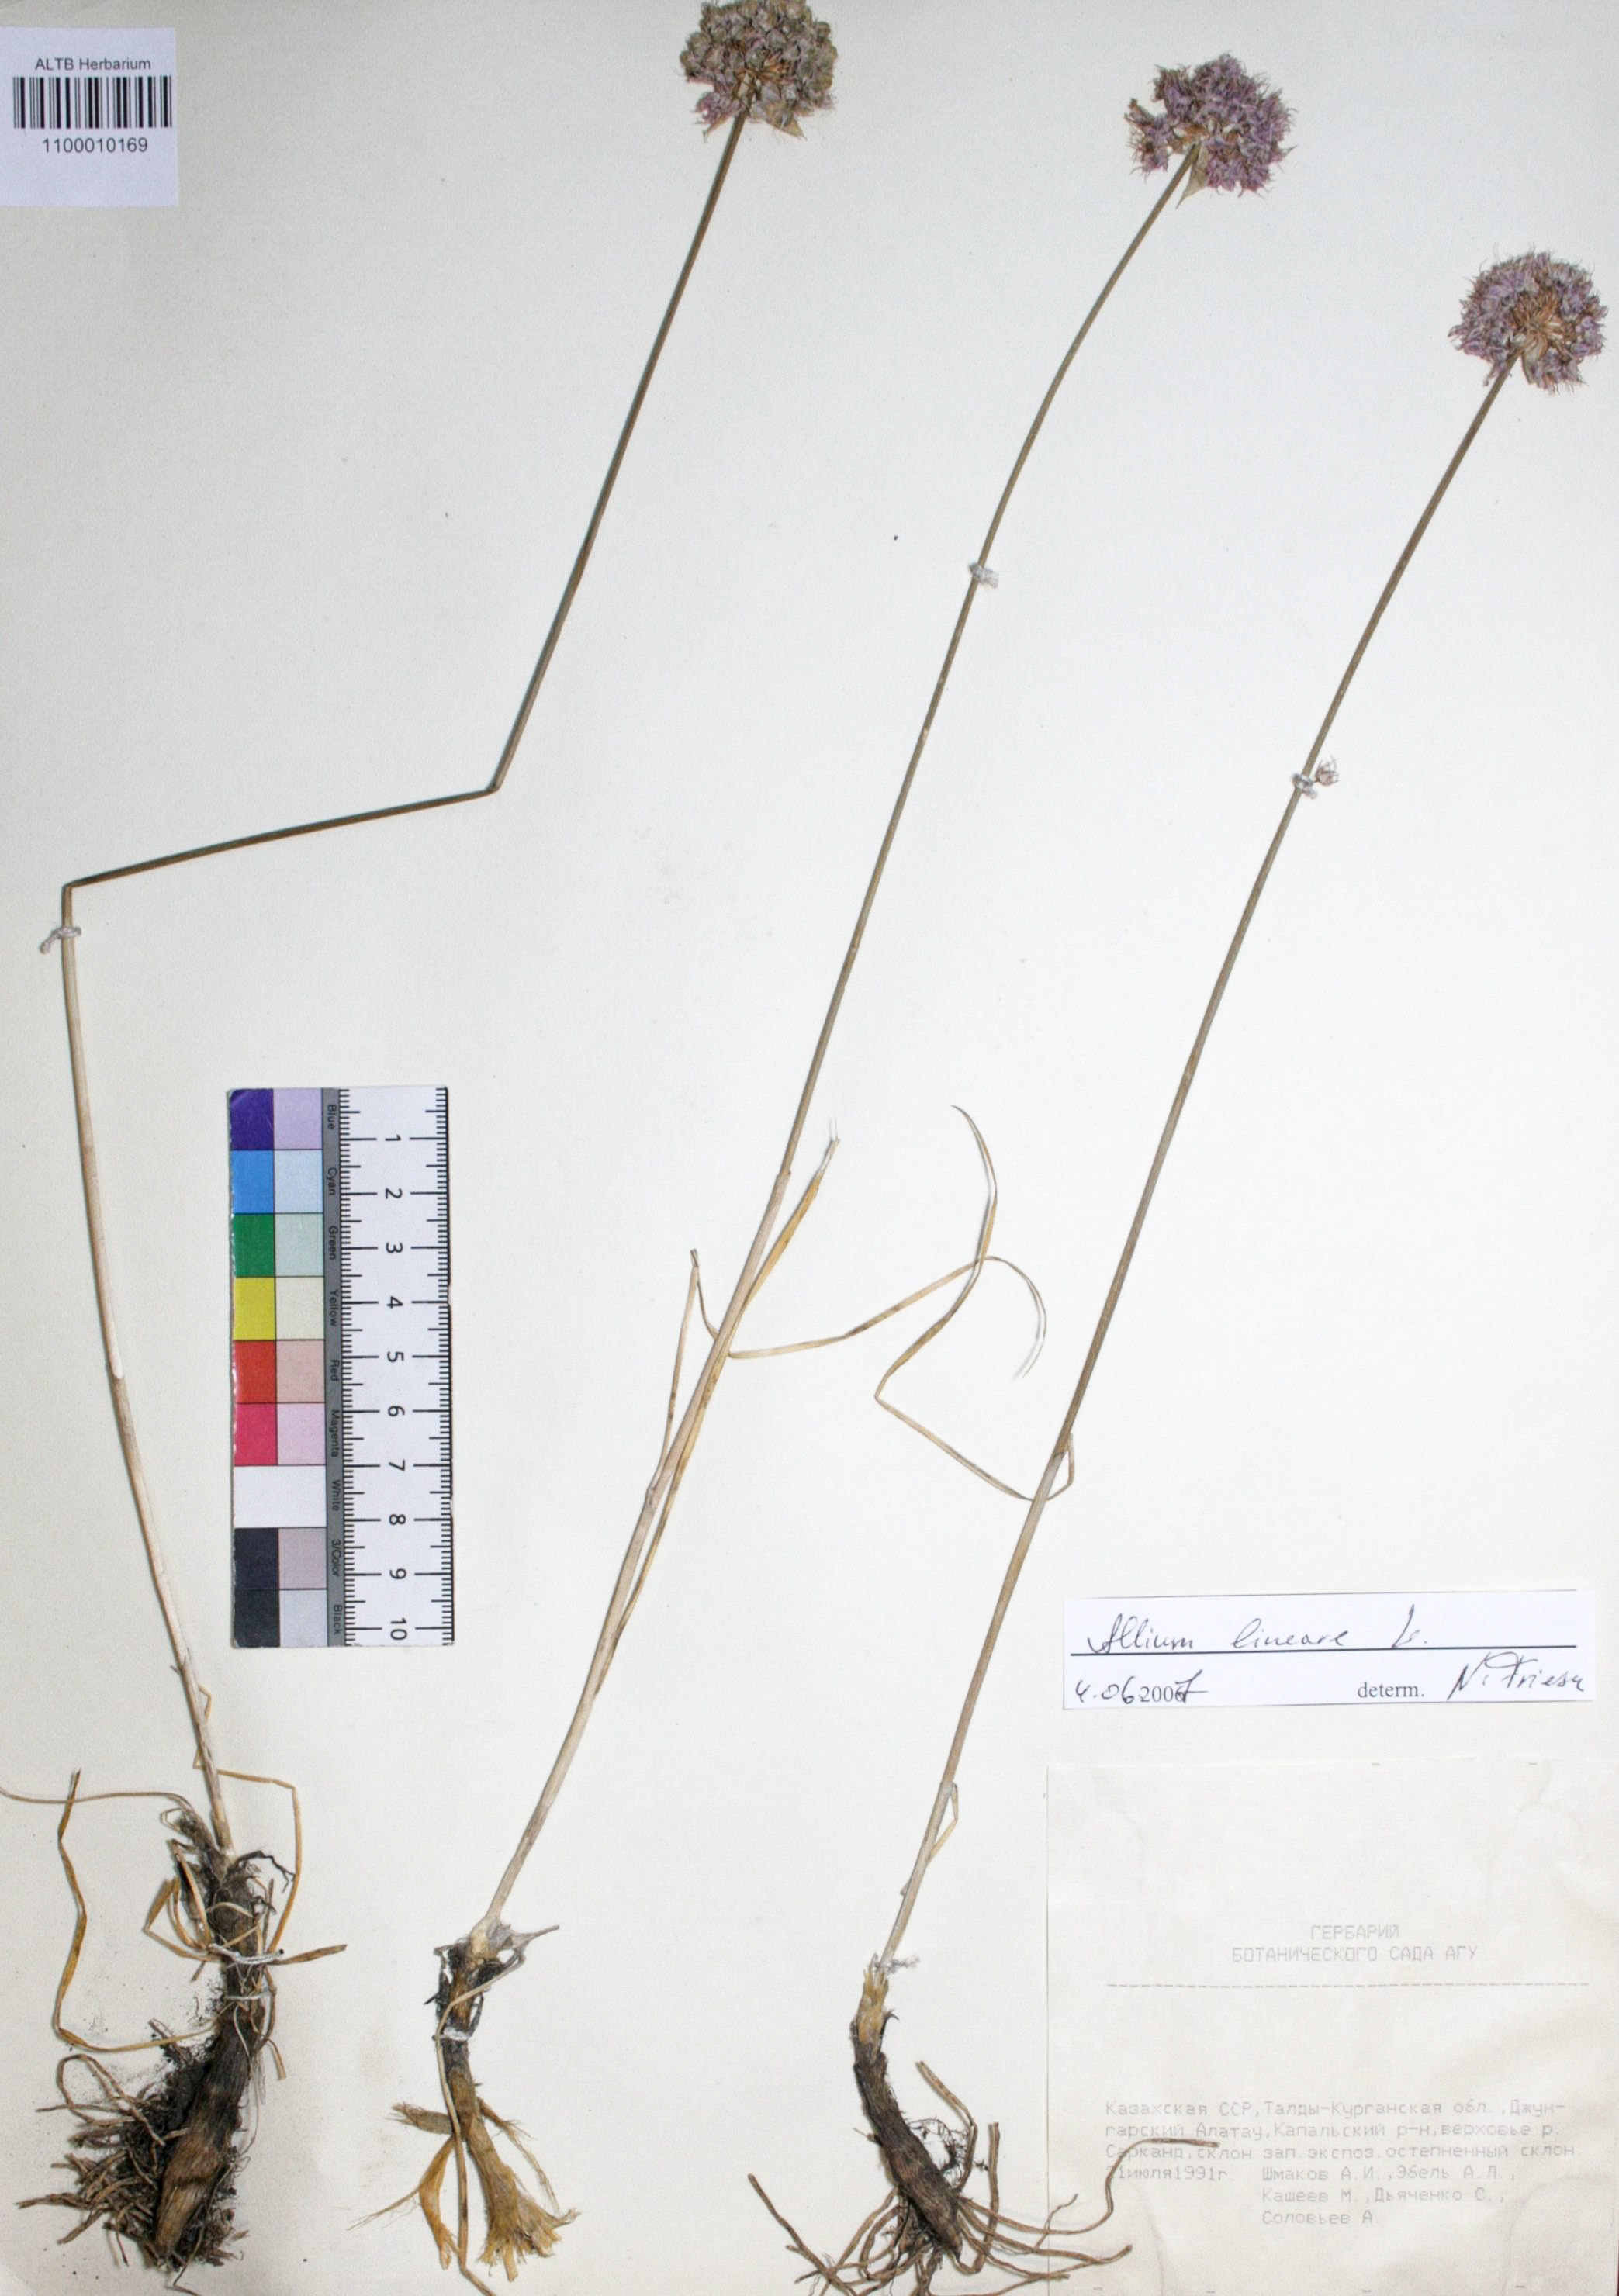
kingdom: Plantae
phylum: Tracheophyta
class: Liliopsida
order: Asparagales
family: Amaryllidaceae
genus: Allium
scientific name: Allium lineare
